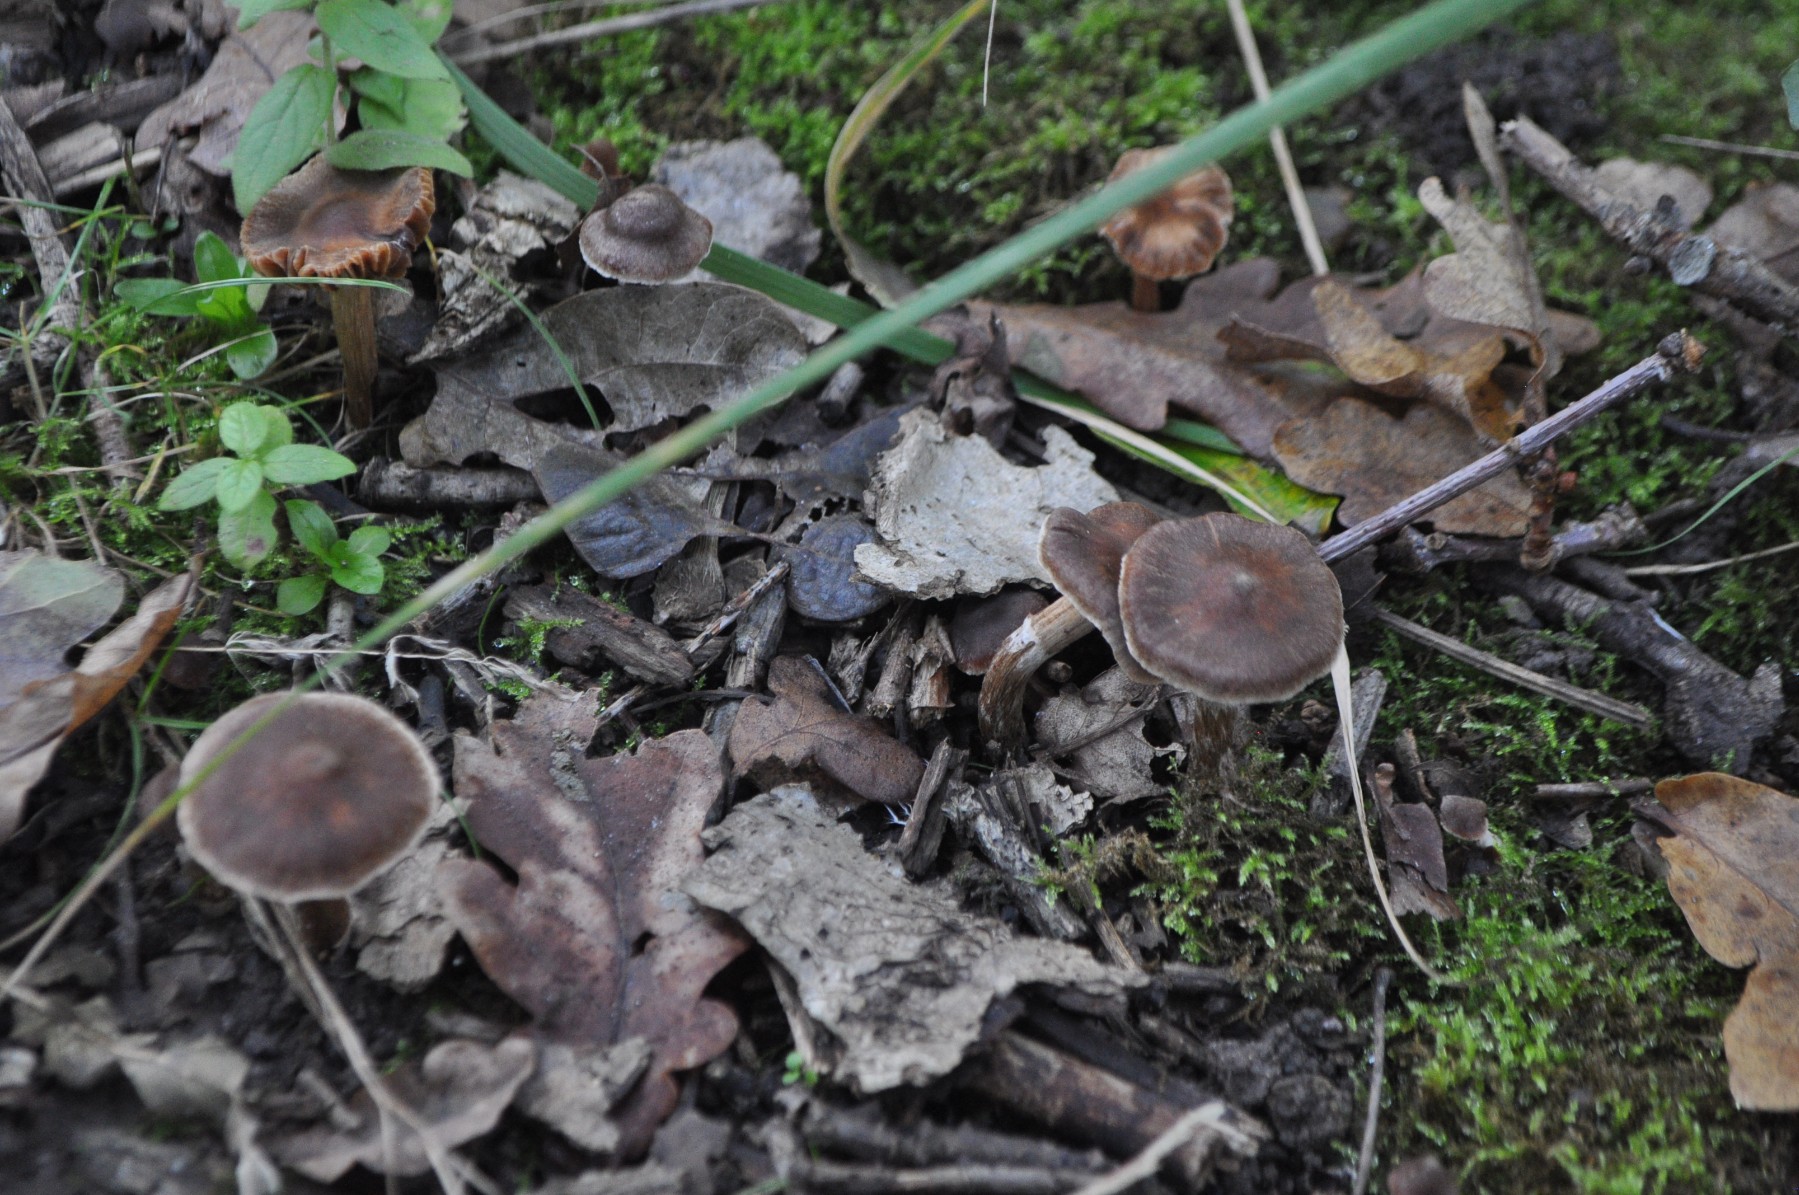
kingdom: Fungi
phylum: Basidiomycota
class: Agaricomycetes
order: Agaricales
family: Cortinariaceae
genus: Cortinarius
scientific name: Cortinarius
